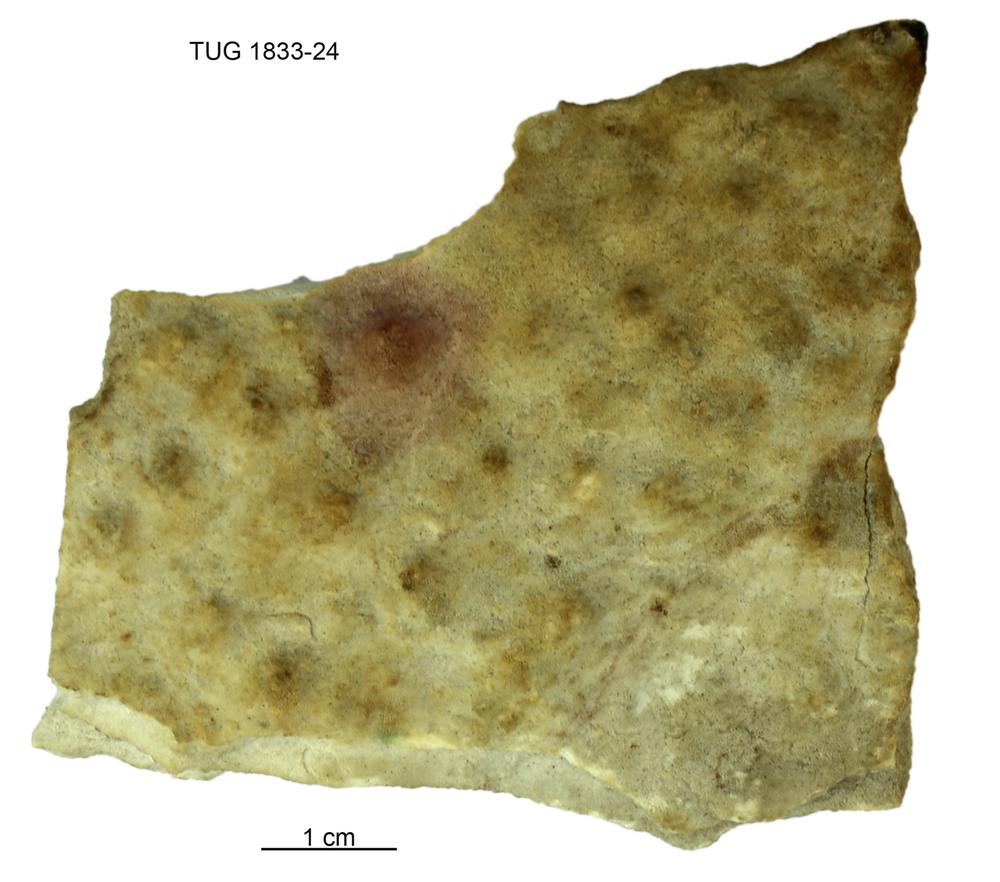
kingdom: Animalia
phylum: Porifera
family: Clathrodictyidae
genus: Clathrodictyon
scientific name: Clathrodictyon mammillatum
